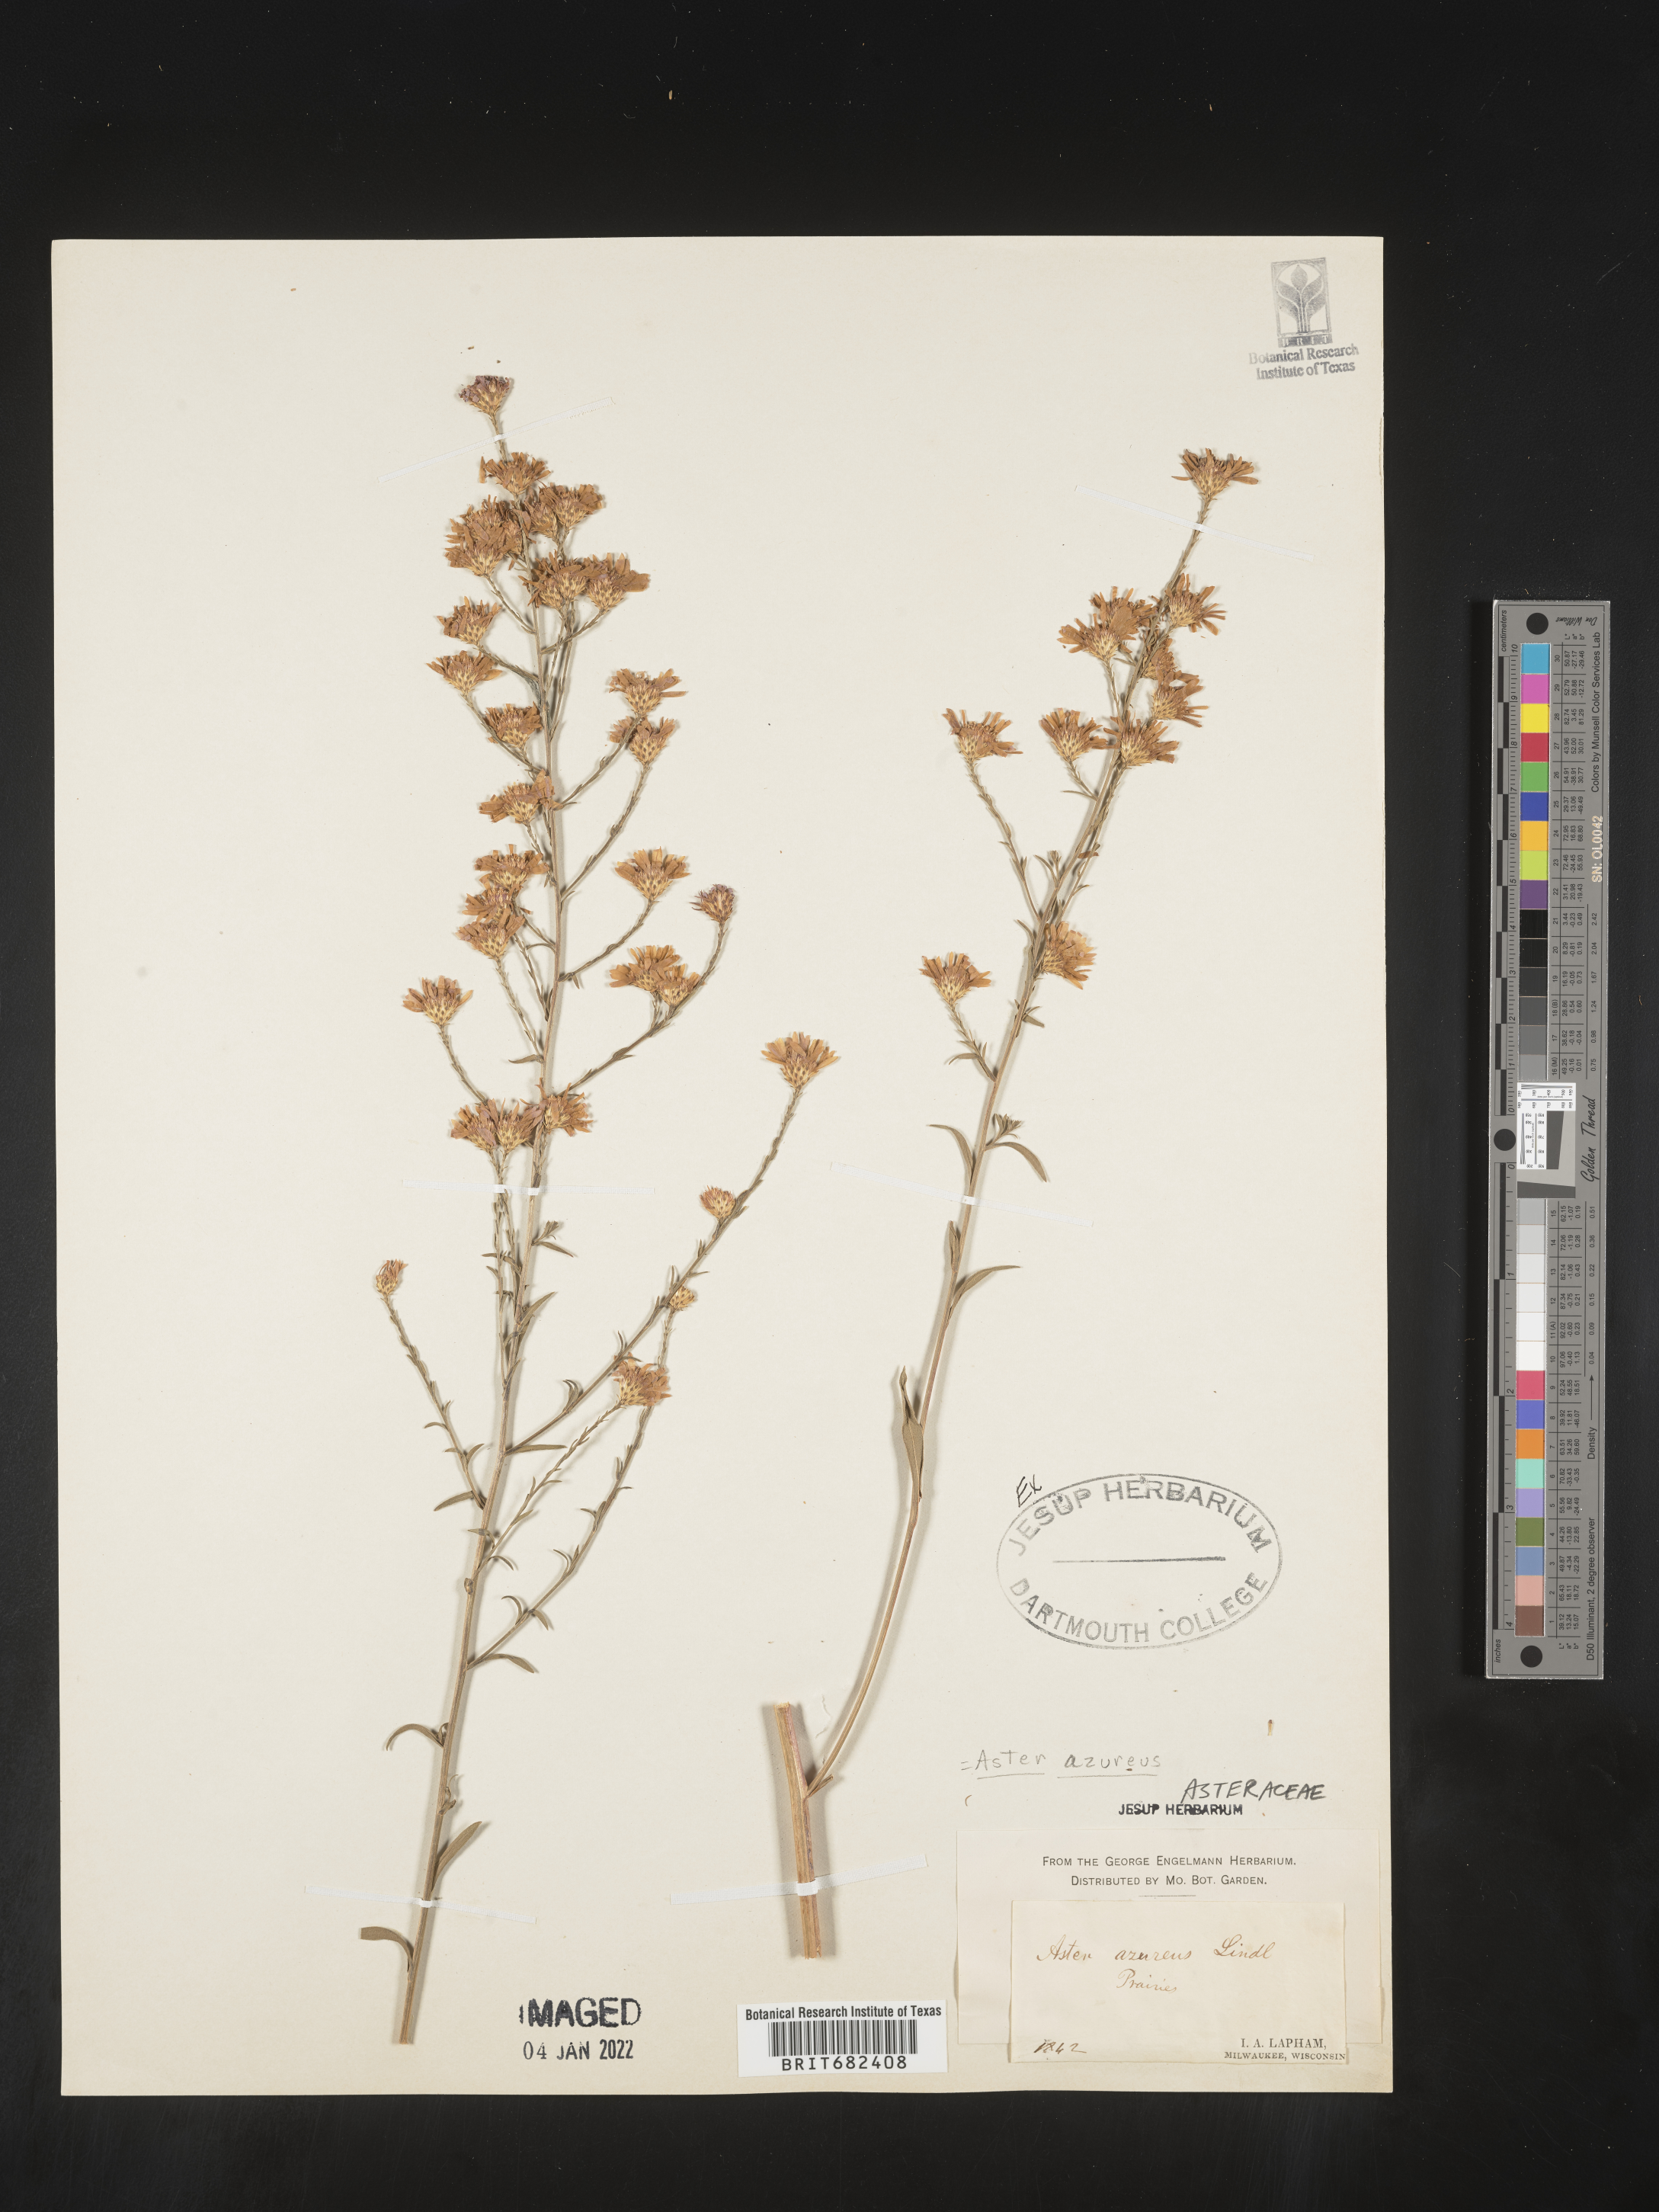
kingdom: Plantae
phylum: Tracheophyta
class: Magnoliopsida
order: Asterales
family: Asteraceae
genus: Aster
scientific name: Aster
